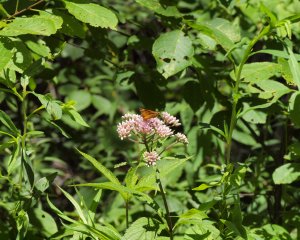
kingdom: Animalia
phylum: Arthropoda
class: Insecta
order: Lepidoptera
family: Hesperiidae
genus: Atrytone
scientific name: Atrytone delaware
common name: Delaware Skipper
